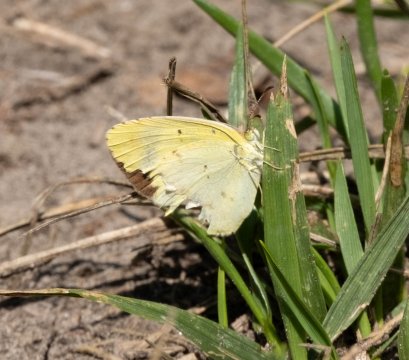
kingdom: Animalia
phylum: Arthropoda
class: Insecta
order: Lepidoptera
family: Pieridae
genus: Pyrisitia
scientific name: Pyrisitia lisa
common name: Little Yellow
